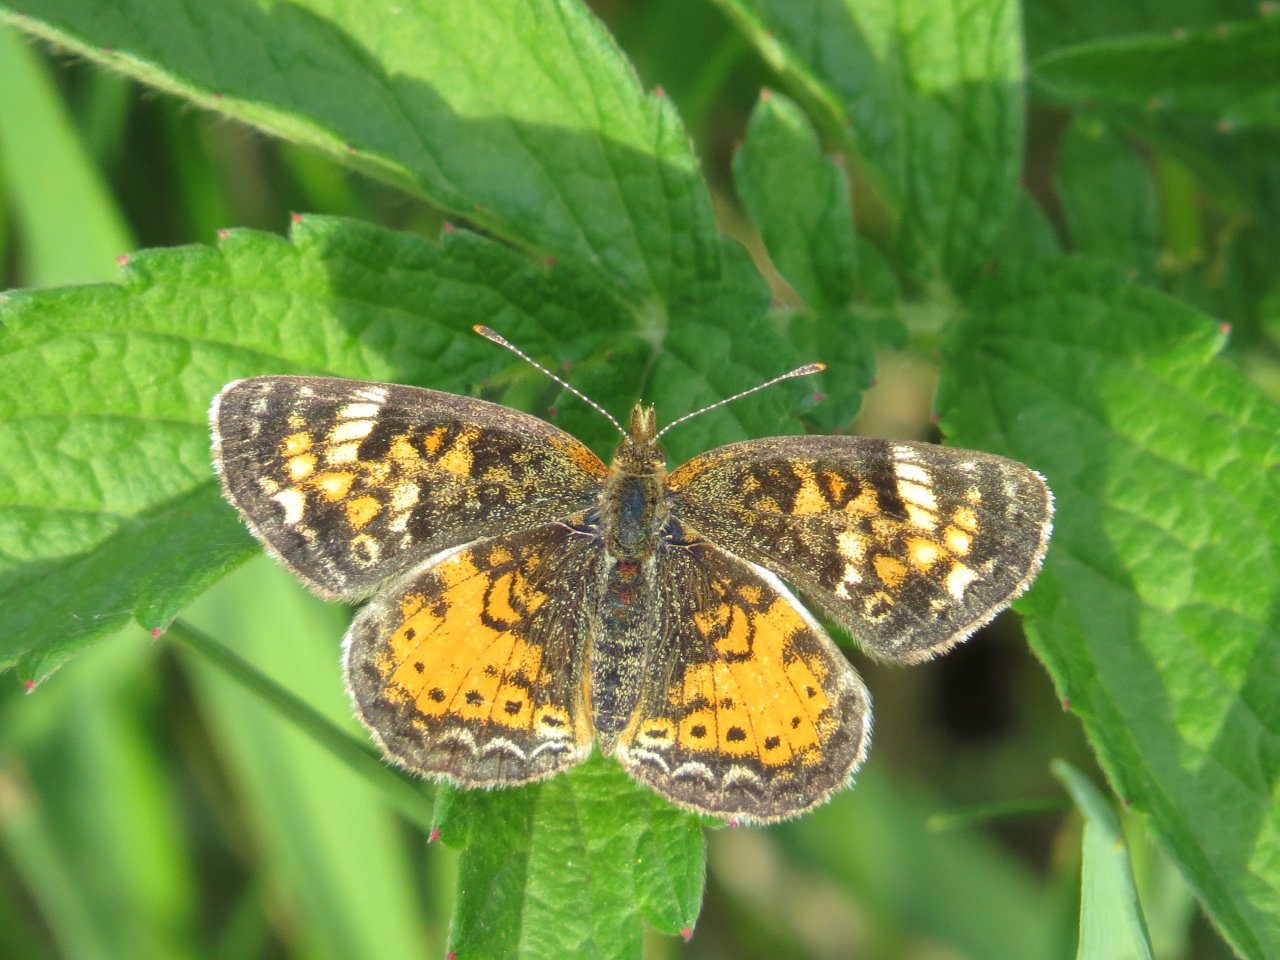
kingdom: Animalia
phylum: Arthropoda
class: Insecta
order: Lepidoptera
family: Nymphalidae
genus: Phyciodes
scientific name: Phyciodes batesii
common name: Tawny Crescent
